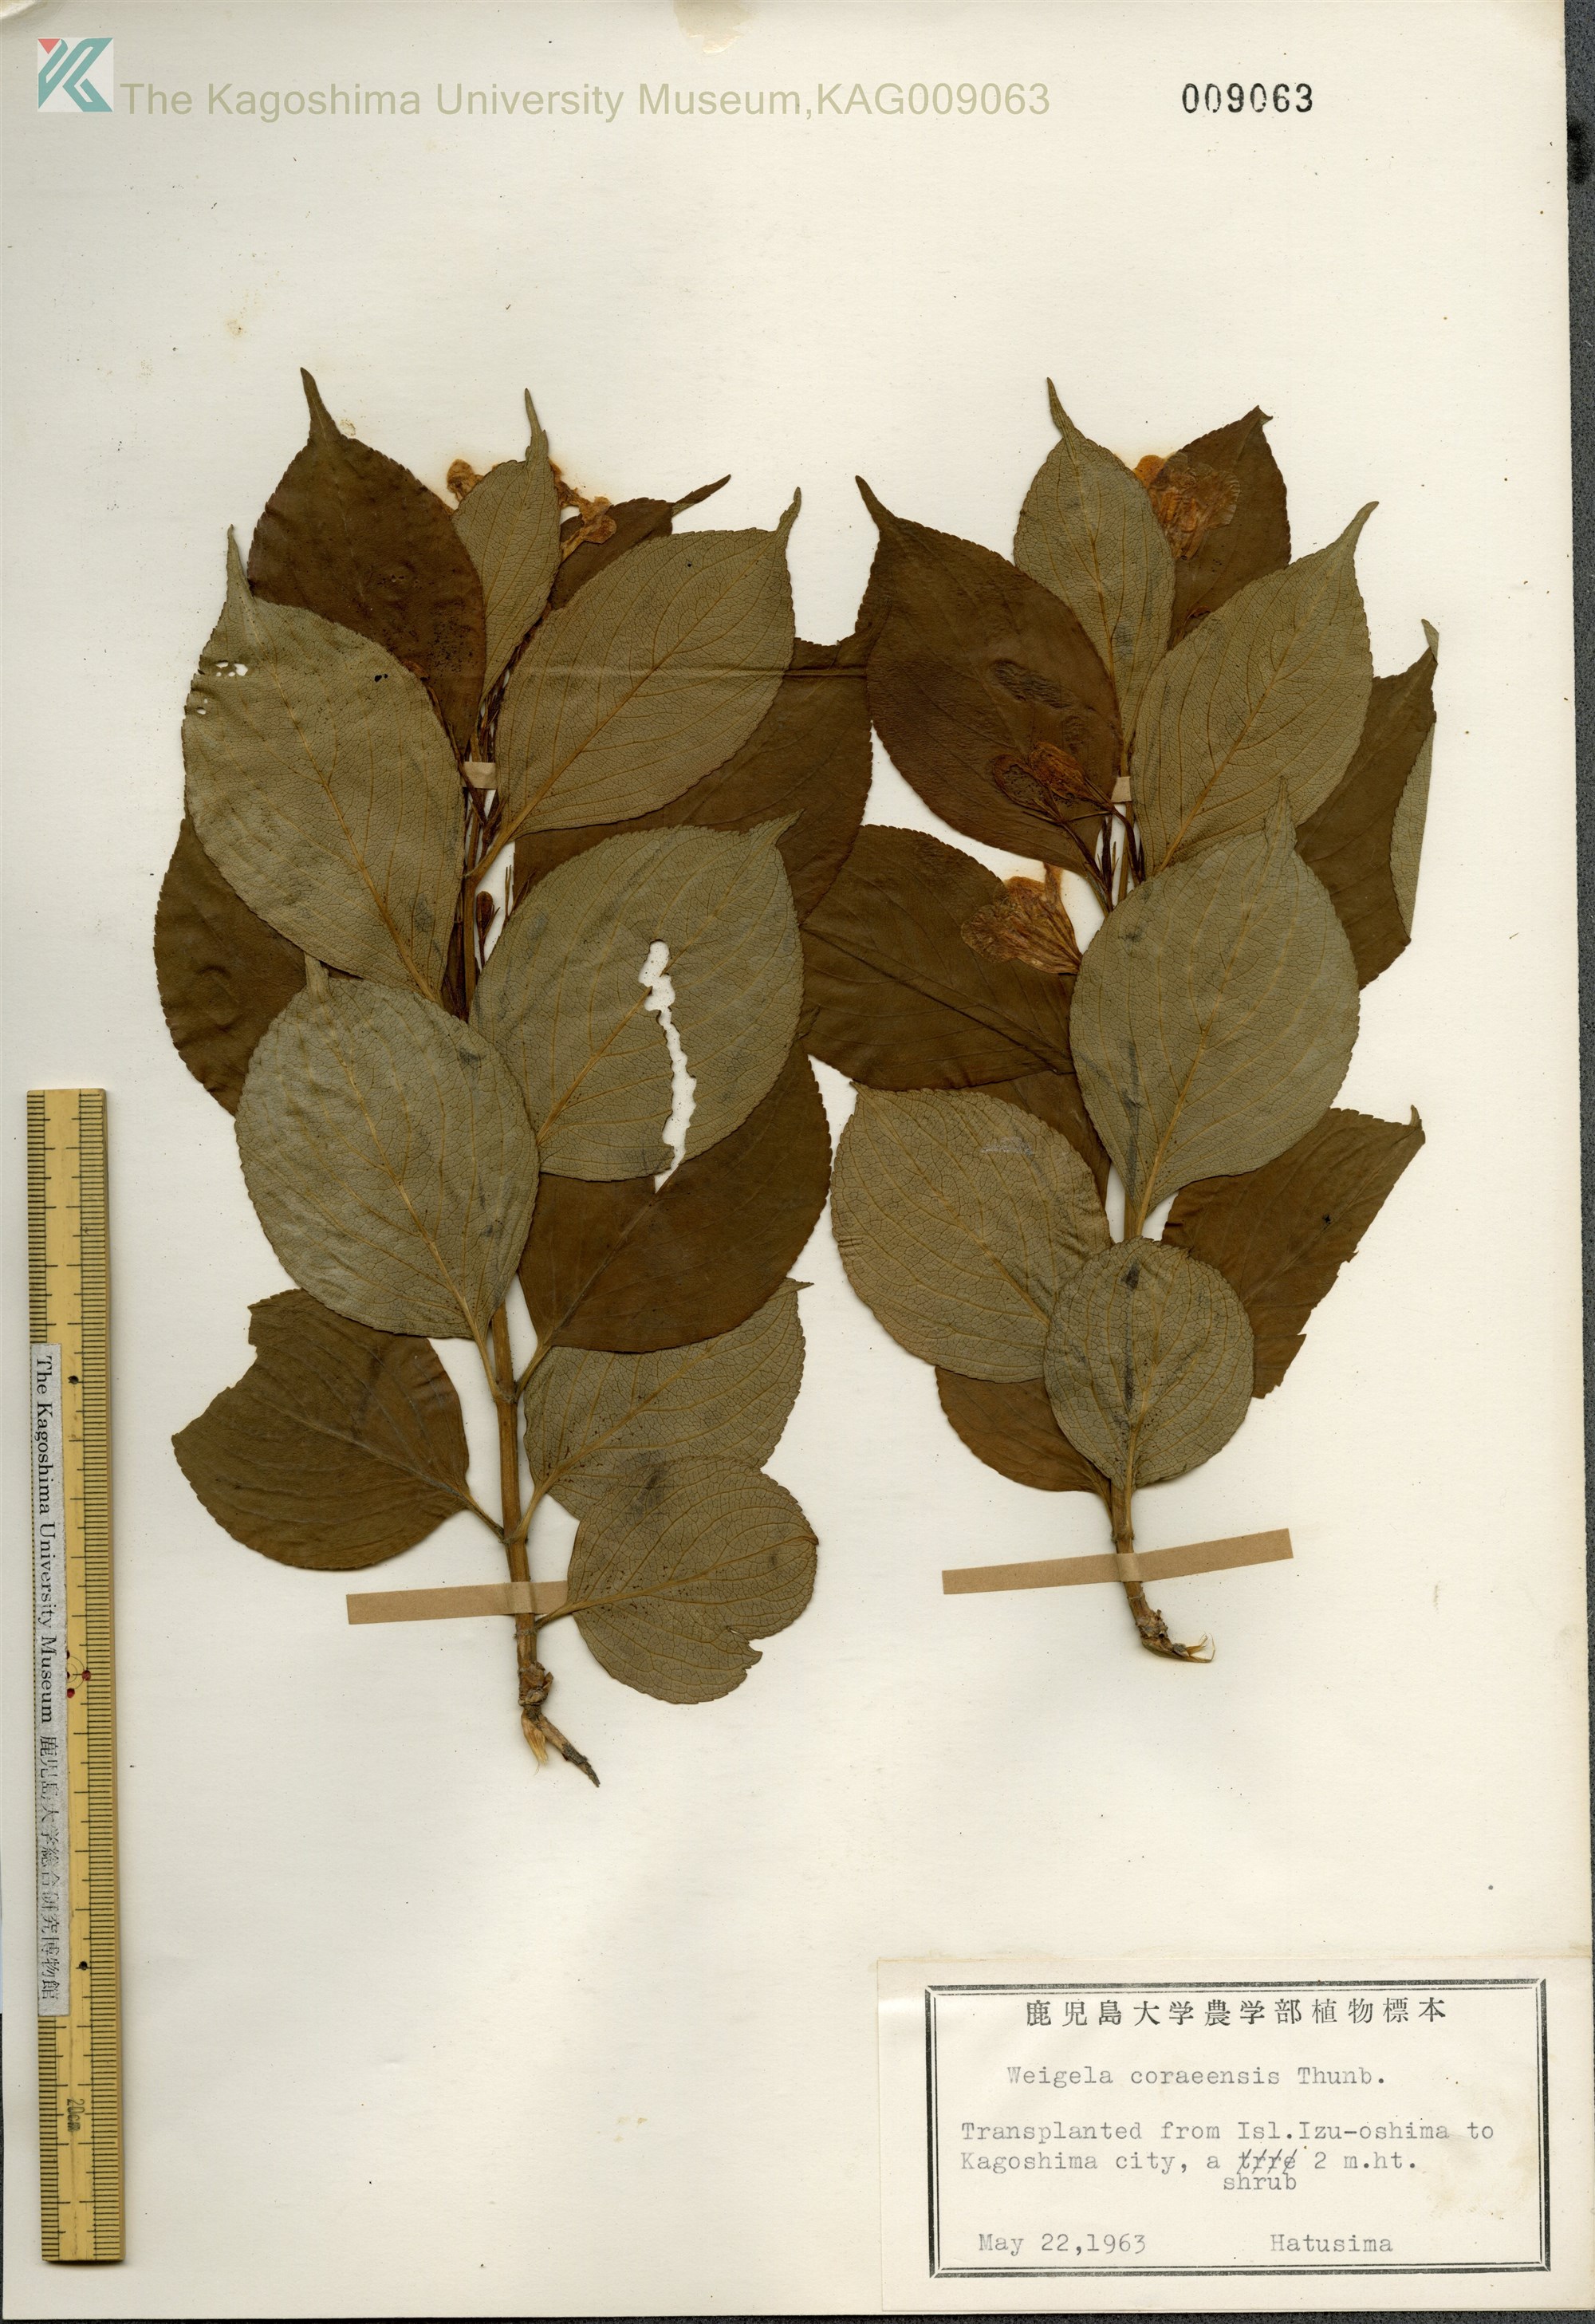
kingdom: Plantae
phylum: Tracheophyta
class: Magnoliopsida
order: Dipsacales
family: Caprifoliaceae
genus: Weigela
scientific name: Weigela
